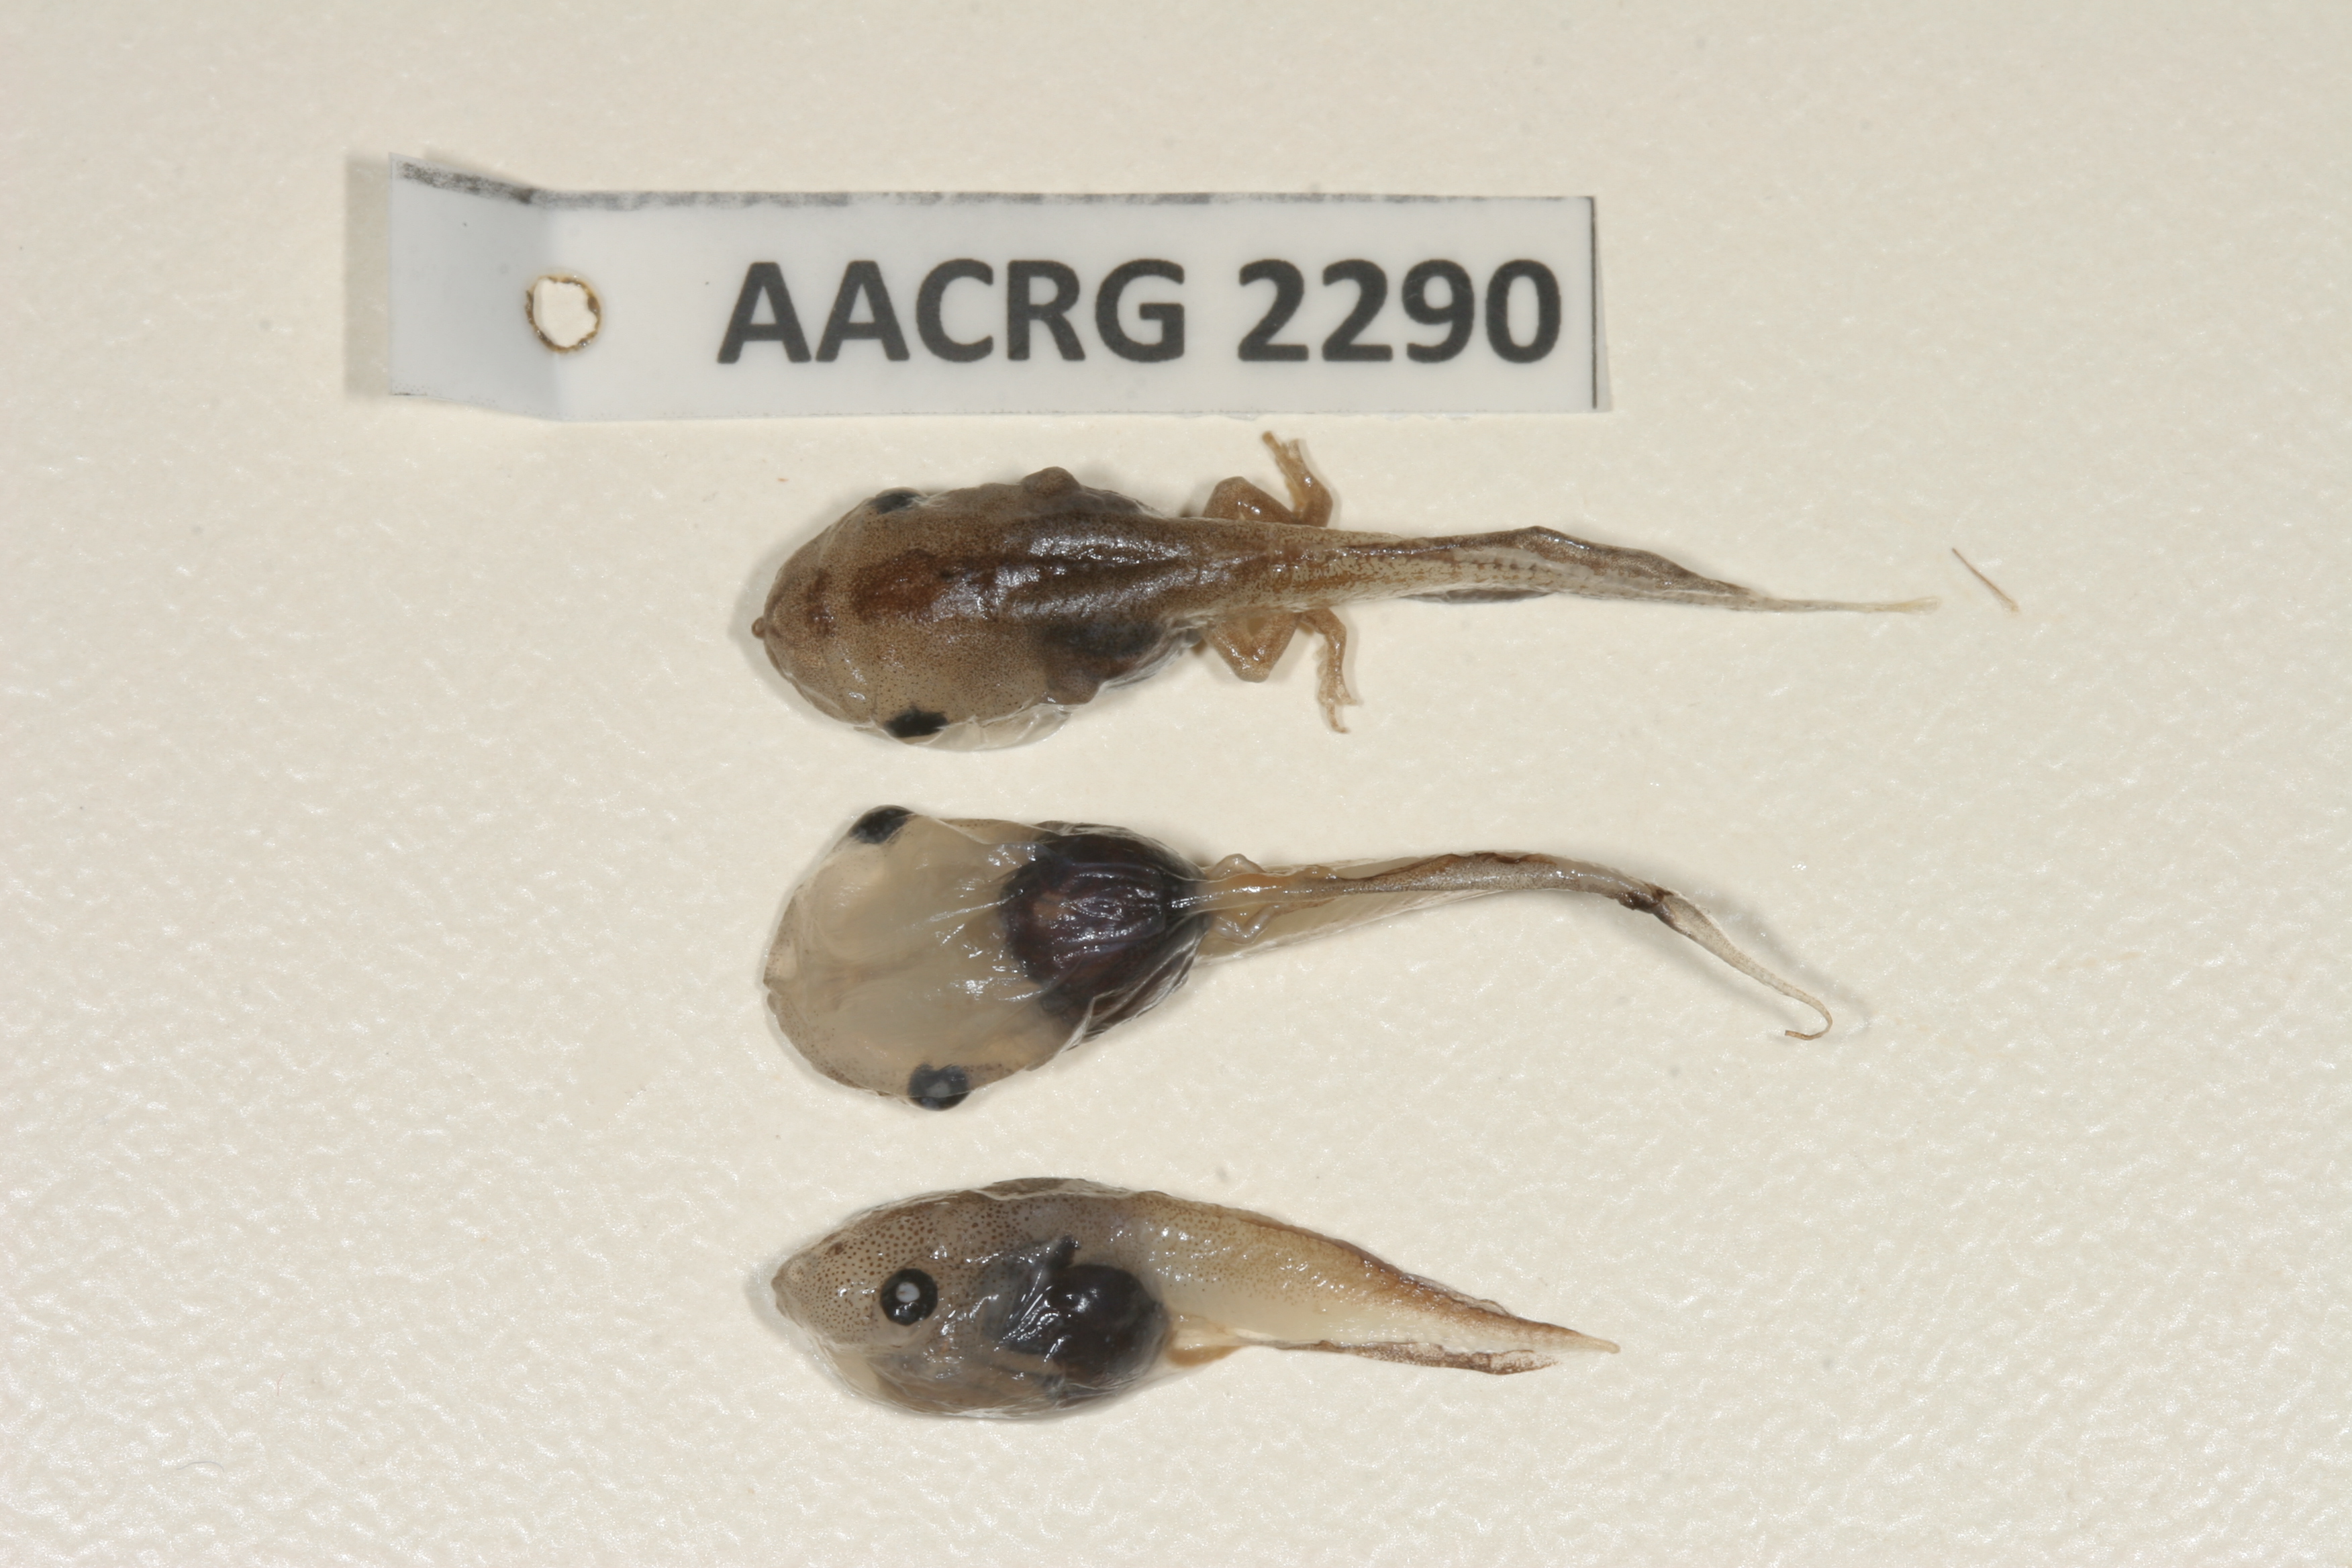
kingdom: Animalia
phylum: Chordata
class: Amphibia
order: Anura
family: Microhylidae
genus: Phrynomantis
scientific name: Phrynomantis bifasciatus
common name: Banded rubber frog
